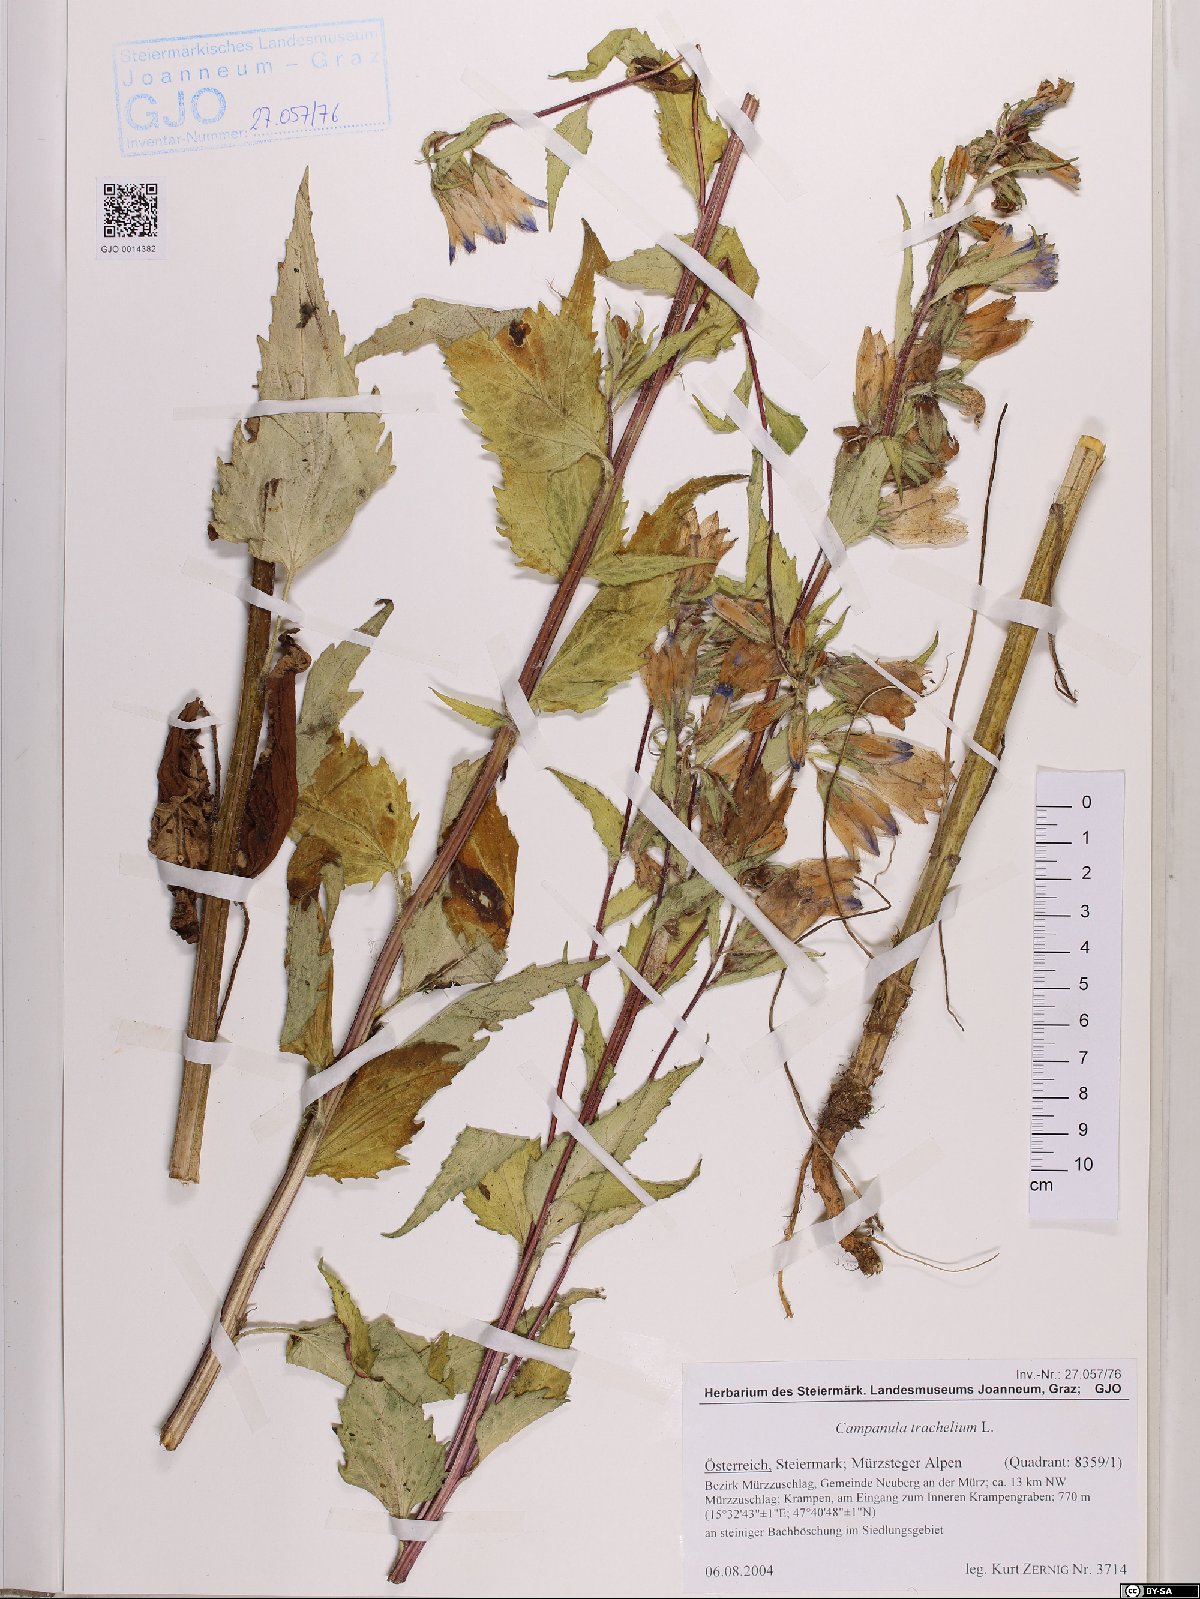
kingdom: Plantae
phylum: Tracheophyta
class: Magnoliopsida
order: Asterales
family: Campanulaceae
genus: Campanula
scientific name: Campanula trachelium
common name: Nettle-leaved bellflower
